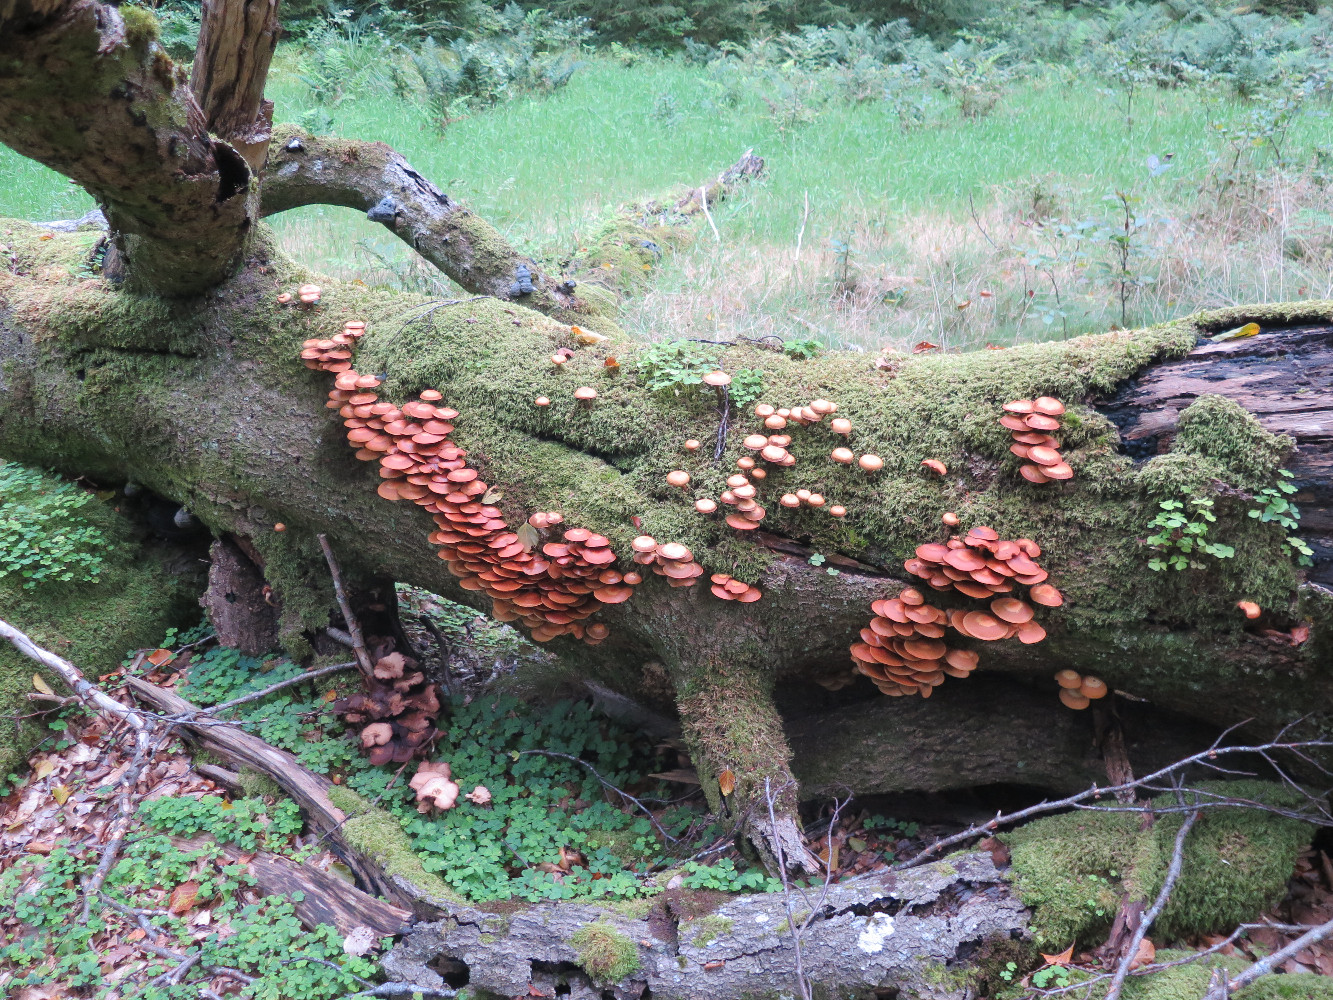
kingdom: Fungi
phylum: Basidiomycota
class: Agaricomycetes
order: Agaricales
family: Strophariaceae
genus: Kuehneromyces
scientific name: Kuehneromyces mutabilis
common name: foranderlig skælhat
